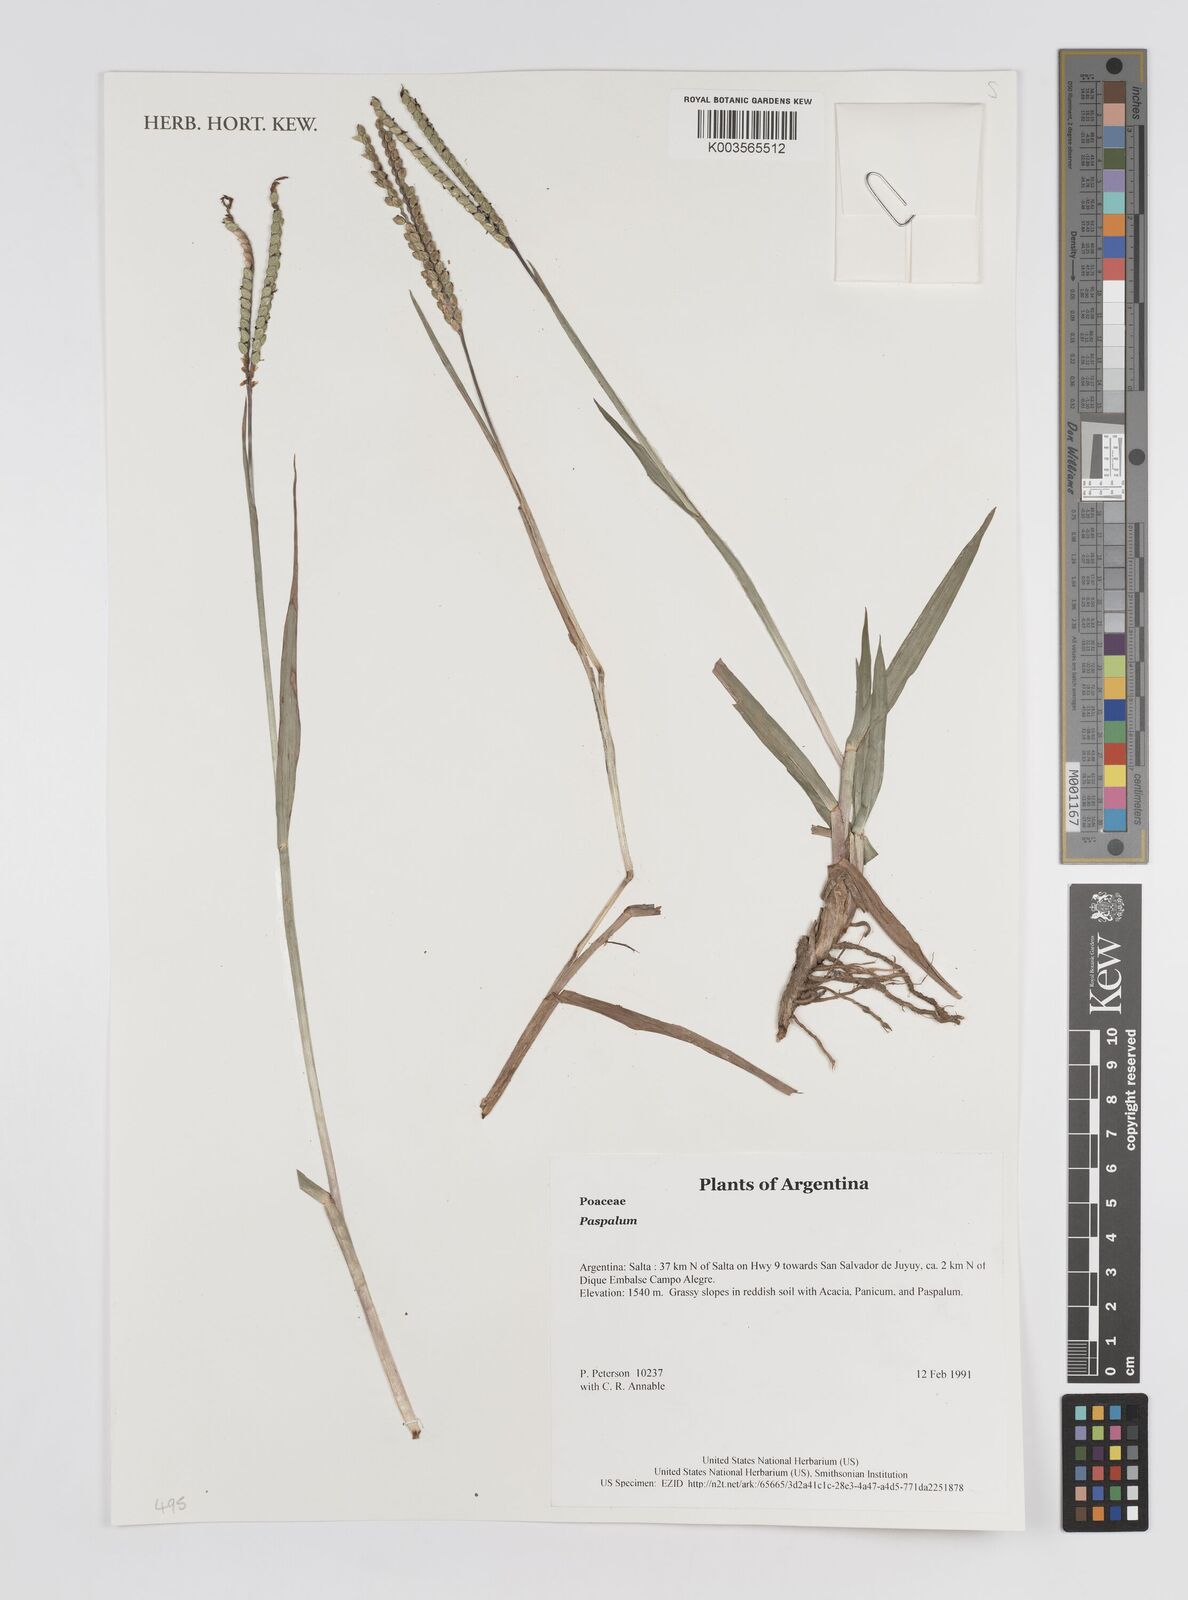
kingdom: Plantae
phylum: Tracheophyta
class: Liliopsida
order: Poales
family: Poaceae
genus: Paspalum
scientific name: Paspalum
